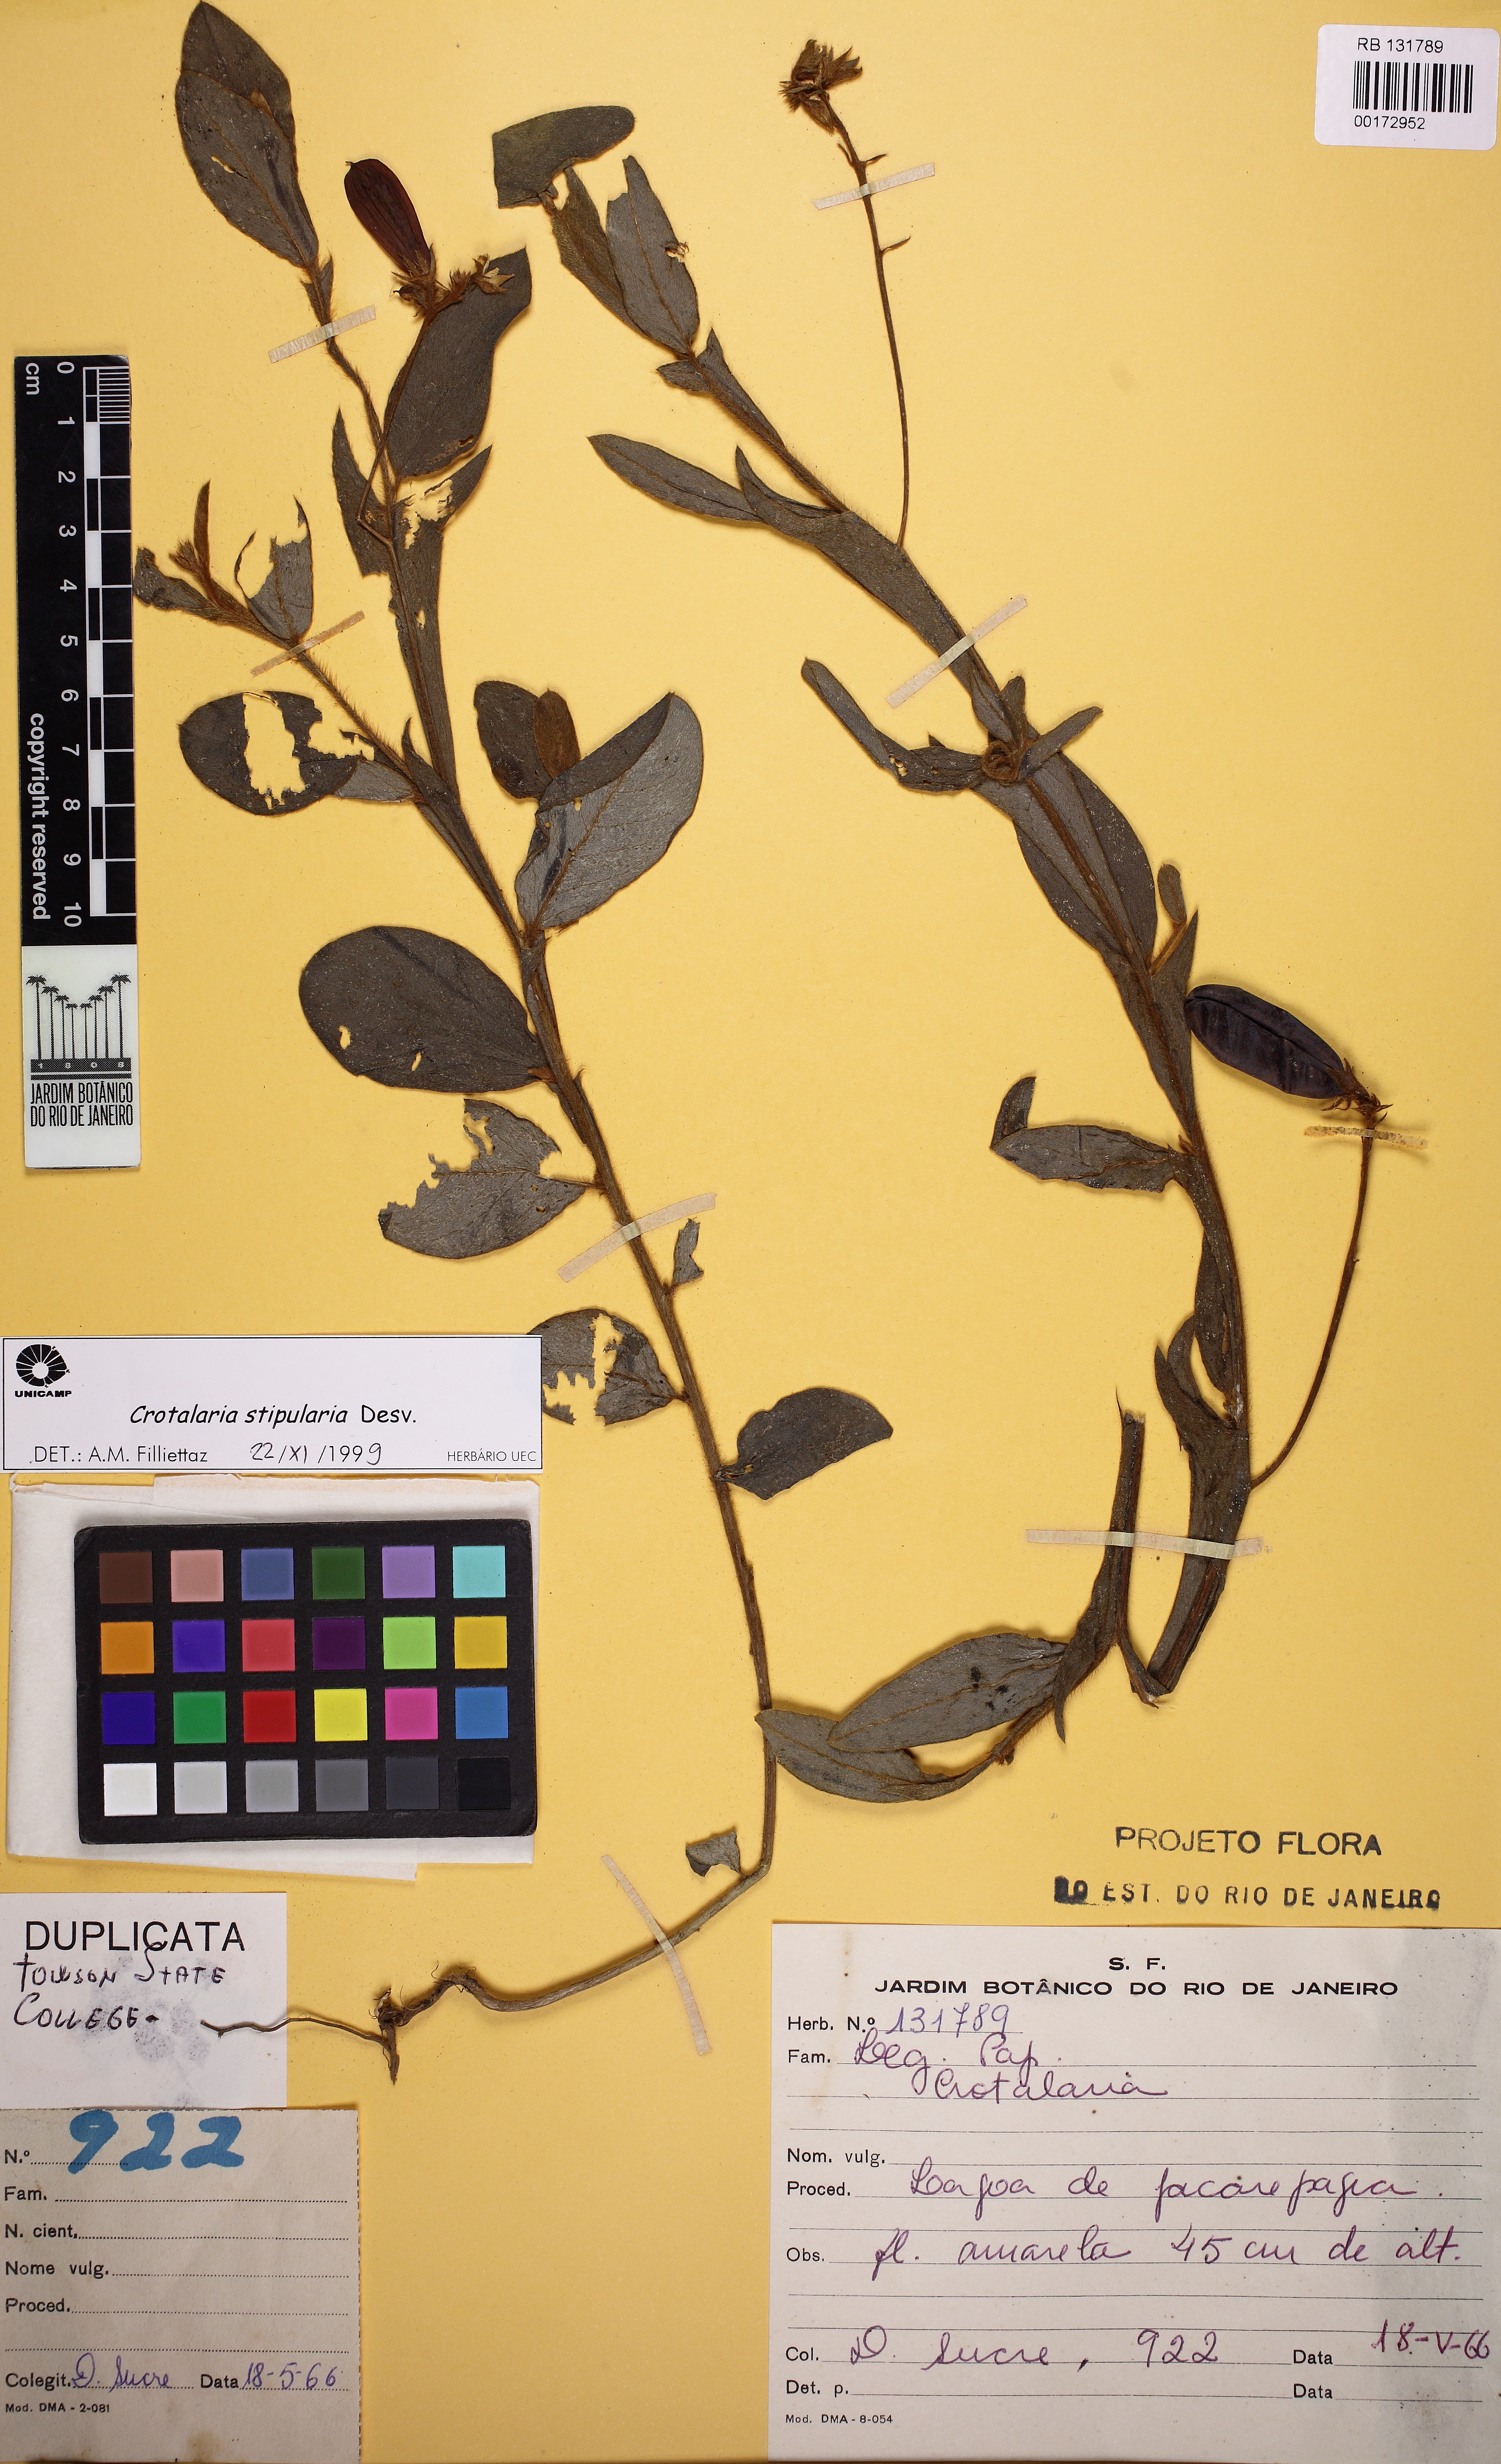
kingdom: Plantae
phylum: Tracheophyta
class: Magnoliopsida
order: Fabales
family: Fabaceae
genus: Crotalaria
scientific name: Crotalaria stipularia
